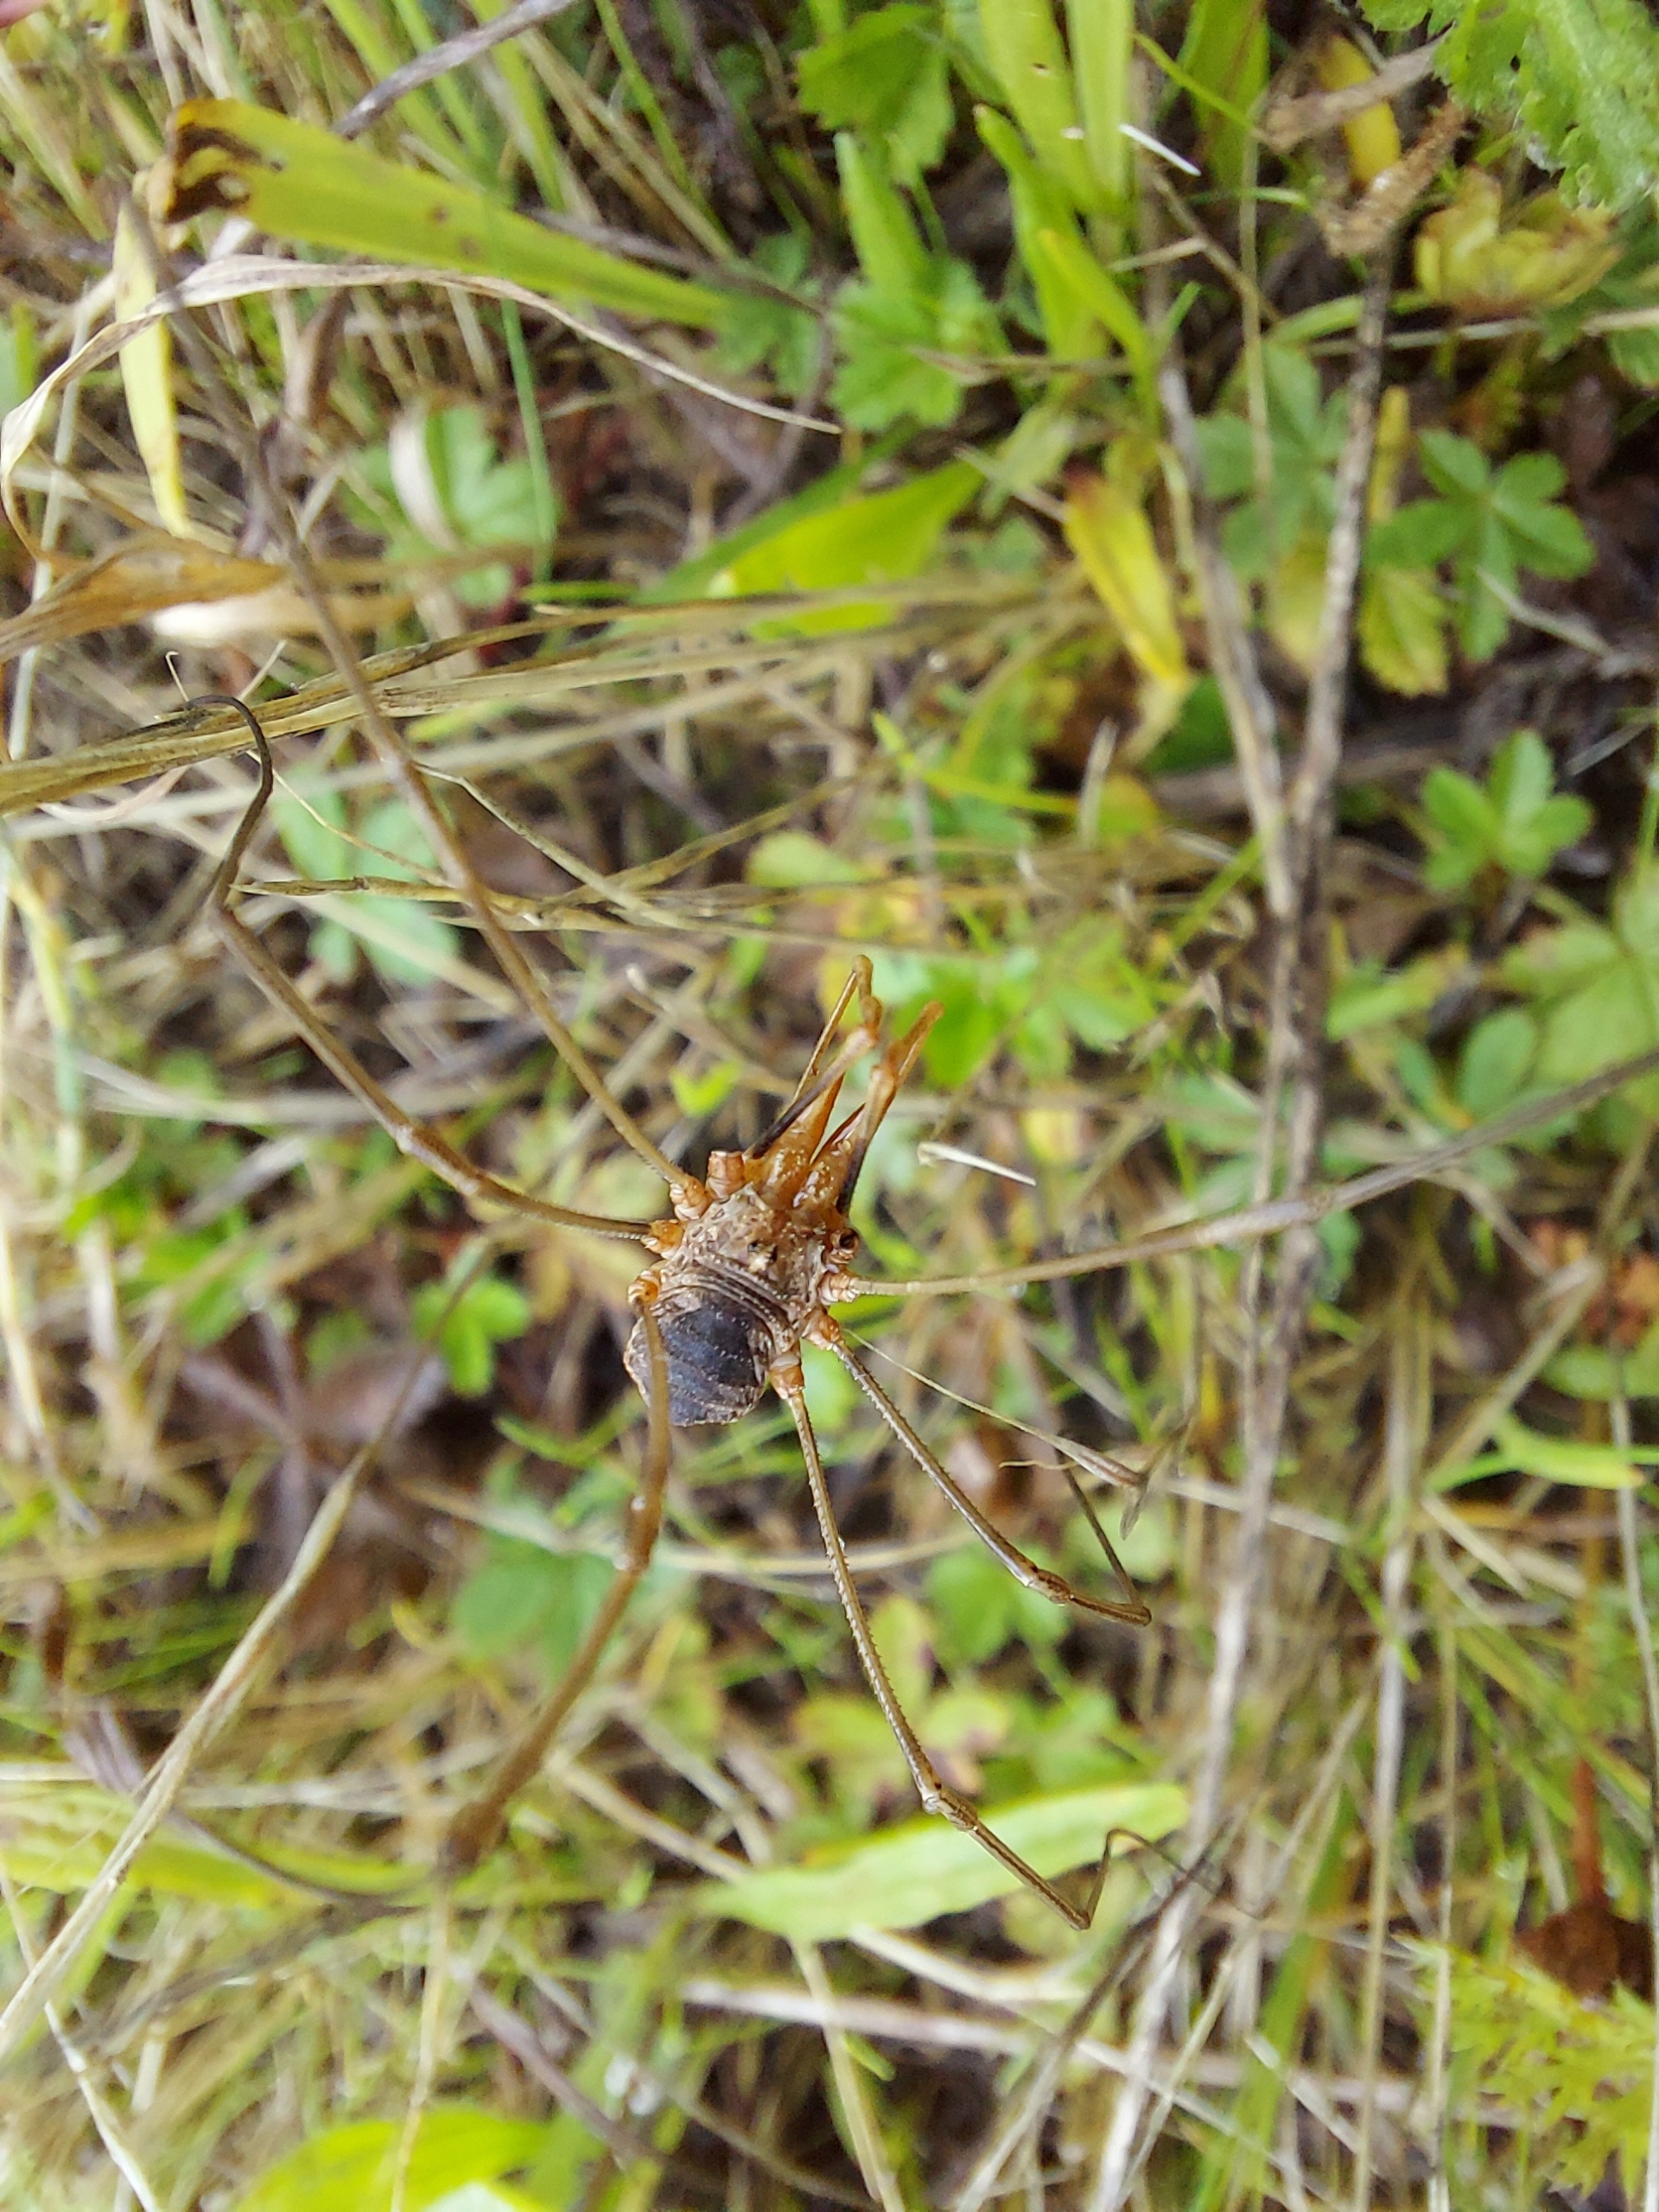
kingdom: Animalia
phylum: Arthropoda
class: Arachnida
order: Opiliones
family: Phalangiidae
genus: Phalangium
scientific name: Phalangium opilio
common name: Hornmejer
